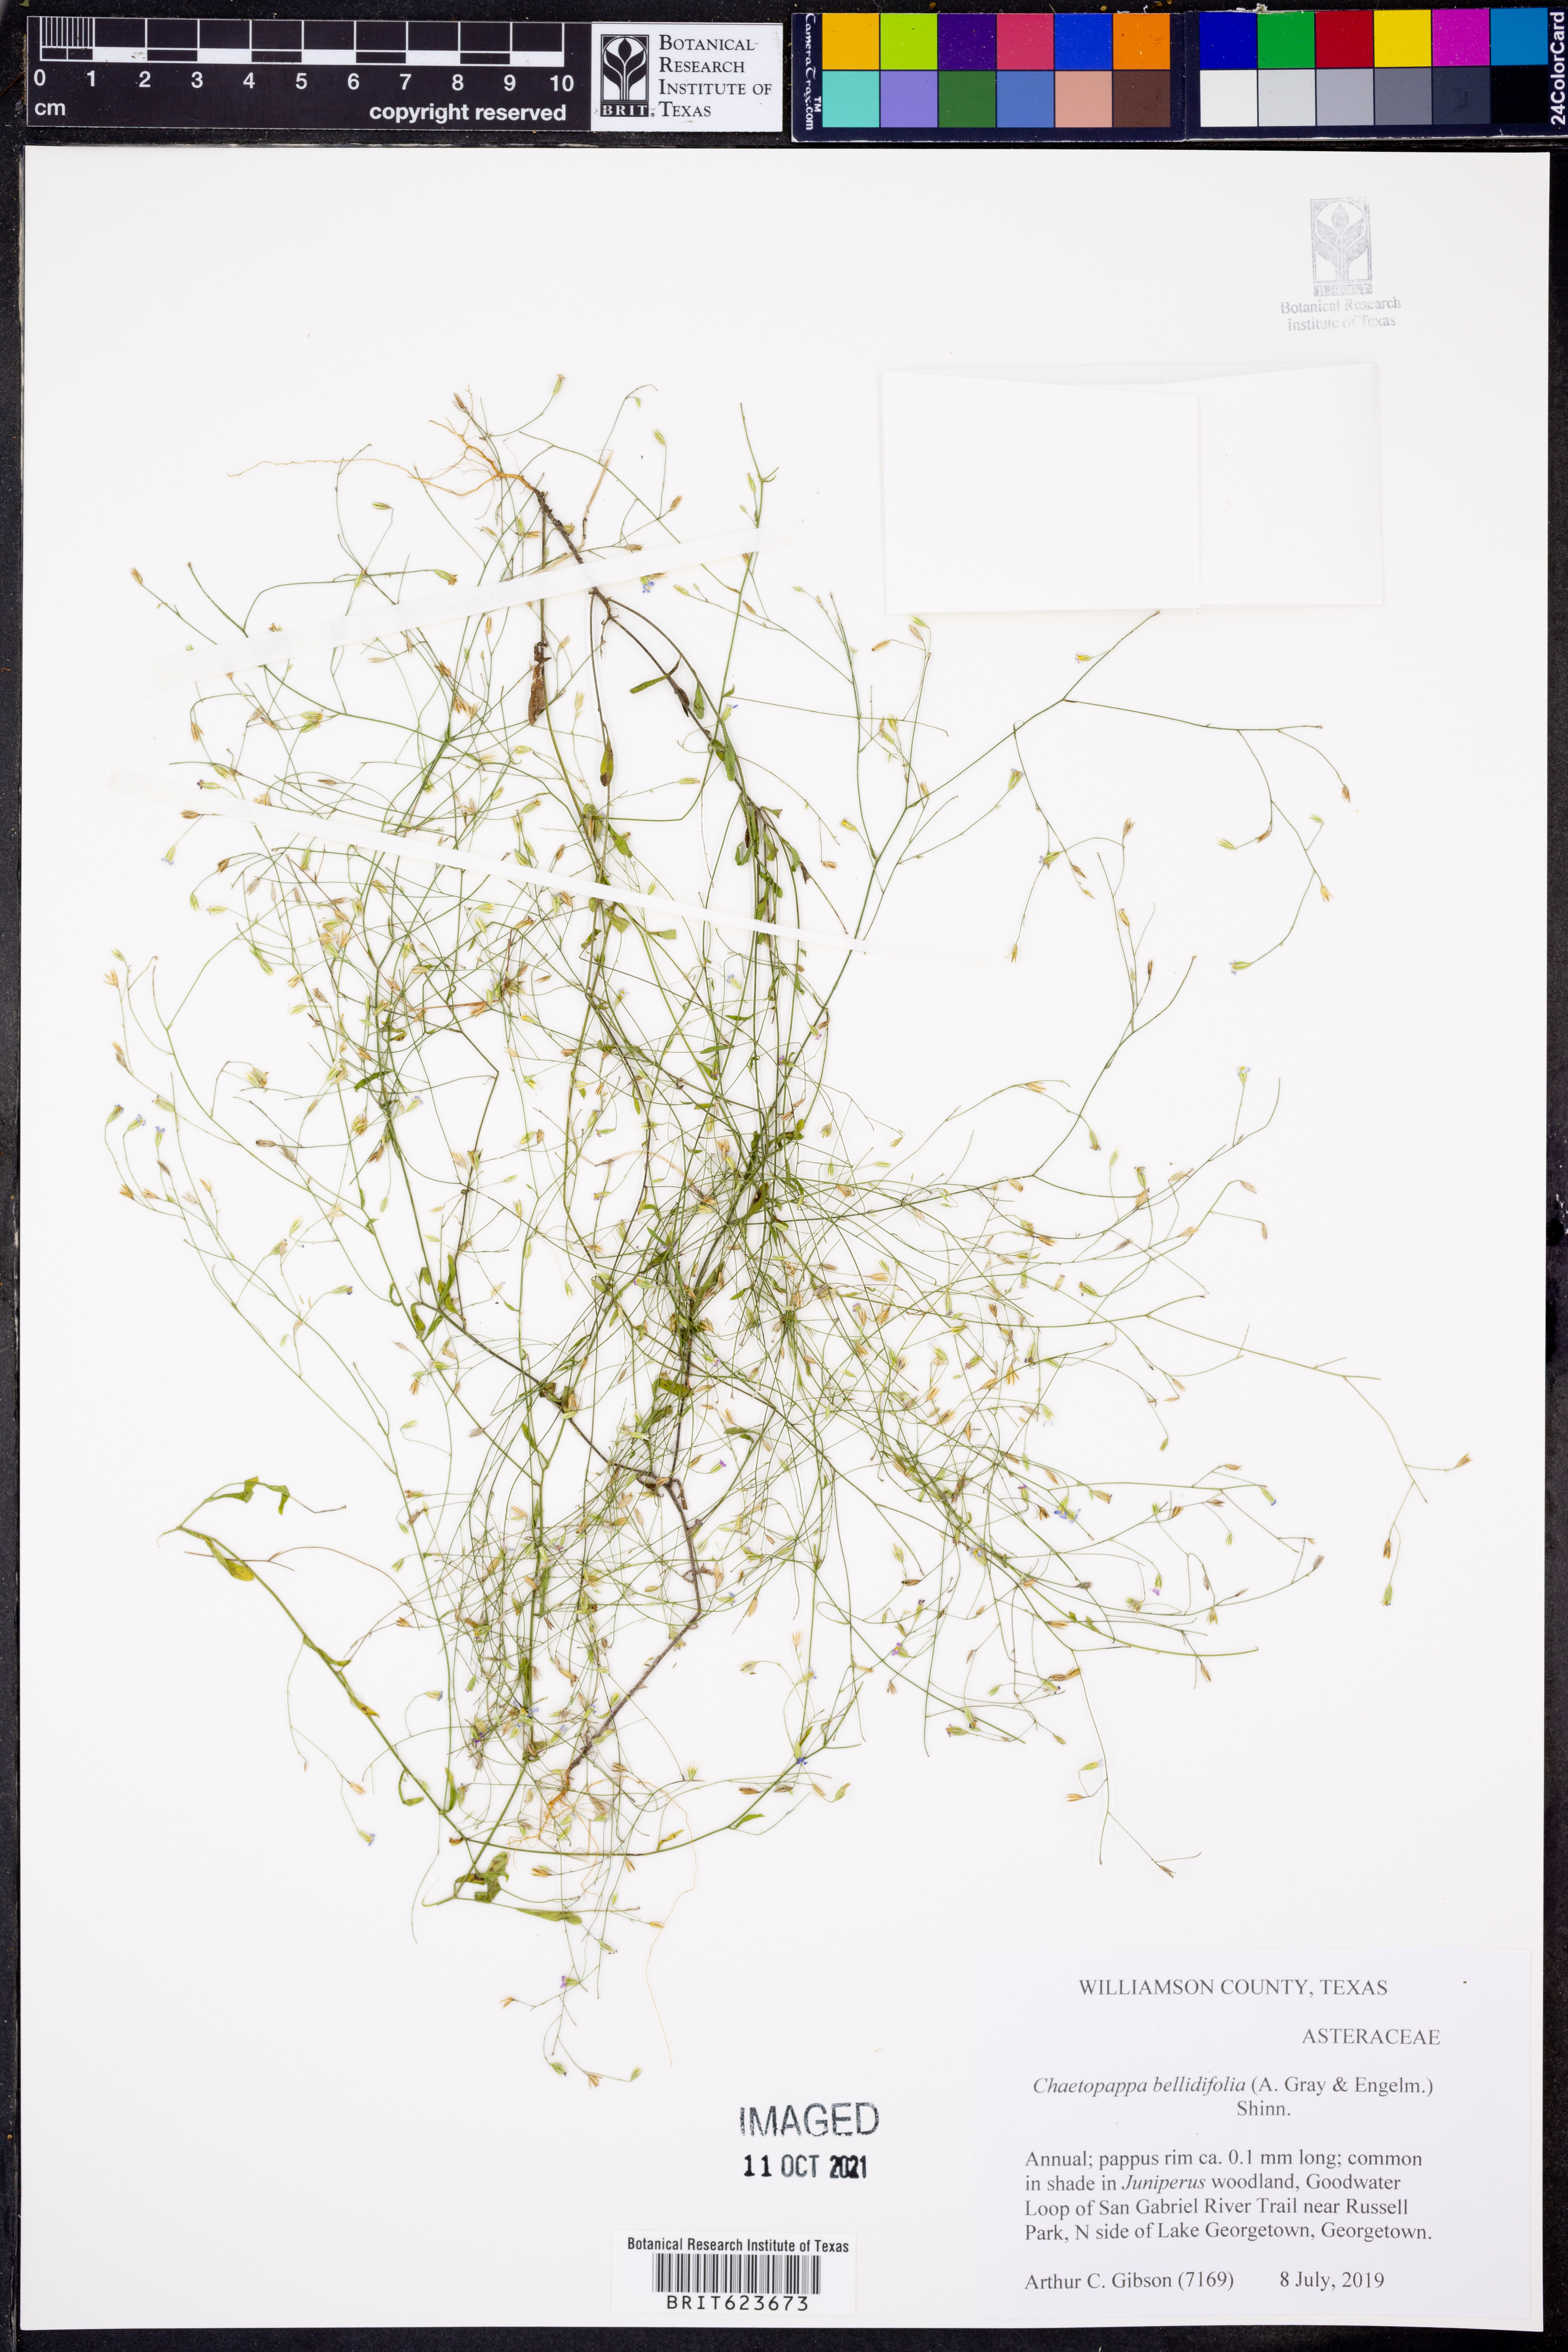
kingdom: Plantae
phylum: Tracheophyta
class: Magnoliopsida
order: Asterales
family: Asteraceae
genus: Chaetopappa
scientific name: Chaetopappa bellidifolia
